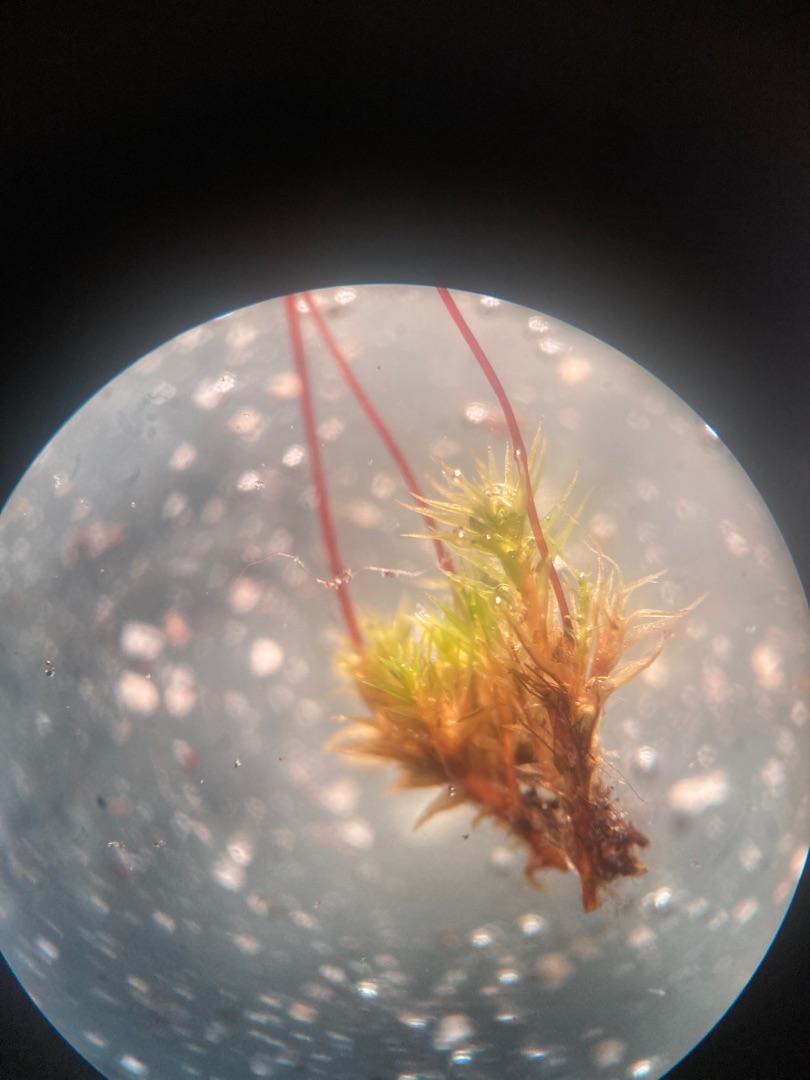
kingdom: Plantae
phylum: Bryophyta
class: Bryopsida
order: Dicranales
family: Ditrichaceae
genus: Ceratodon
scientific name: Ceratodon purpureus
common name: Rød horntand
